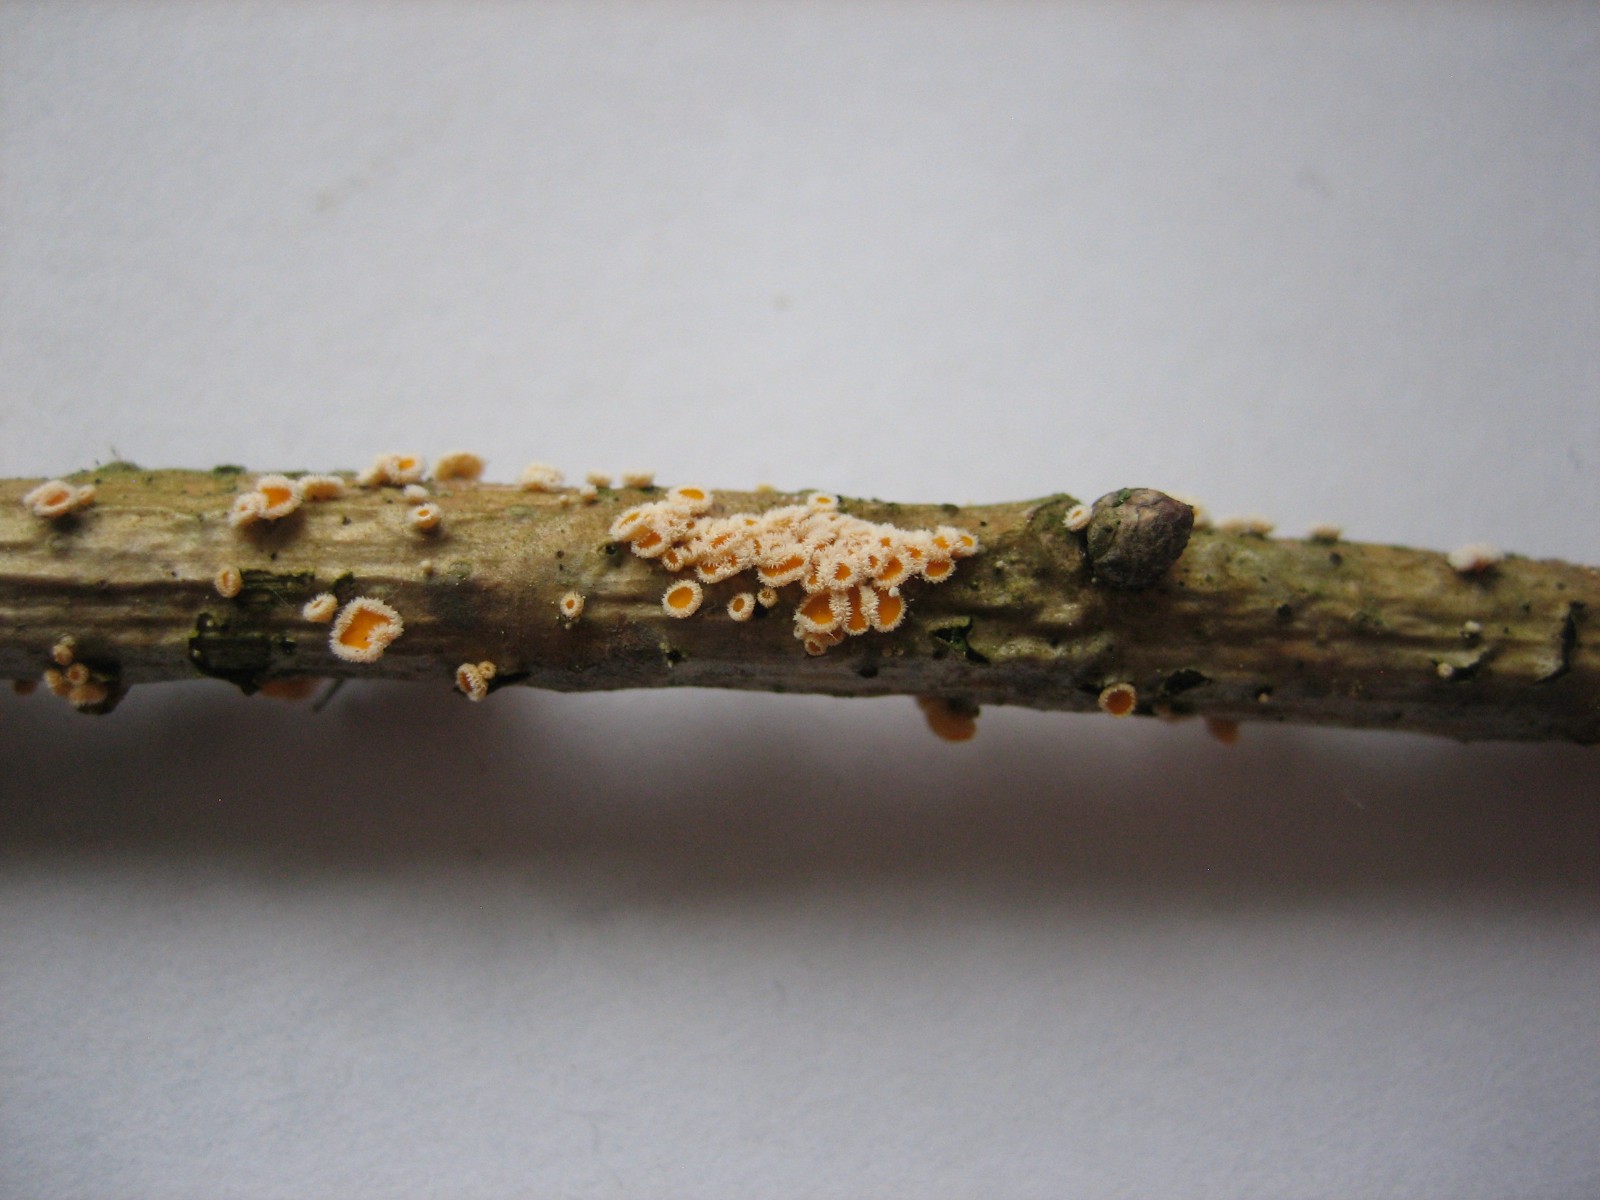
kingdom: Fungi
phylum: Ascomycota
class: Leotiomycetes
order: Helotiales
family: Lachnaceae
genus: Capitotricha
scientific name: Capitotricha bicolor
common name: prægtig frynseskive
